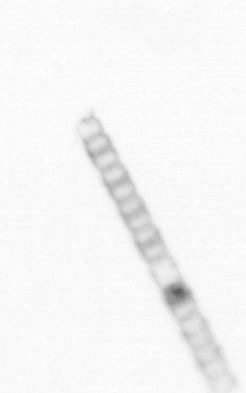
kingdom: Chromista
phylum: Ochrophyta
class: Bacillariophyceae
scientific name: Bacillariophyceae
